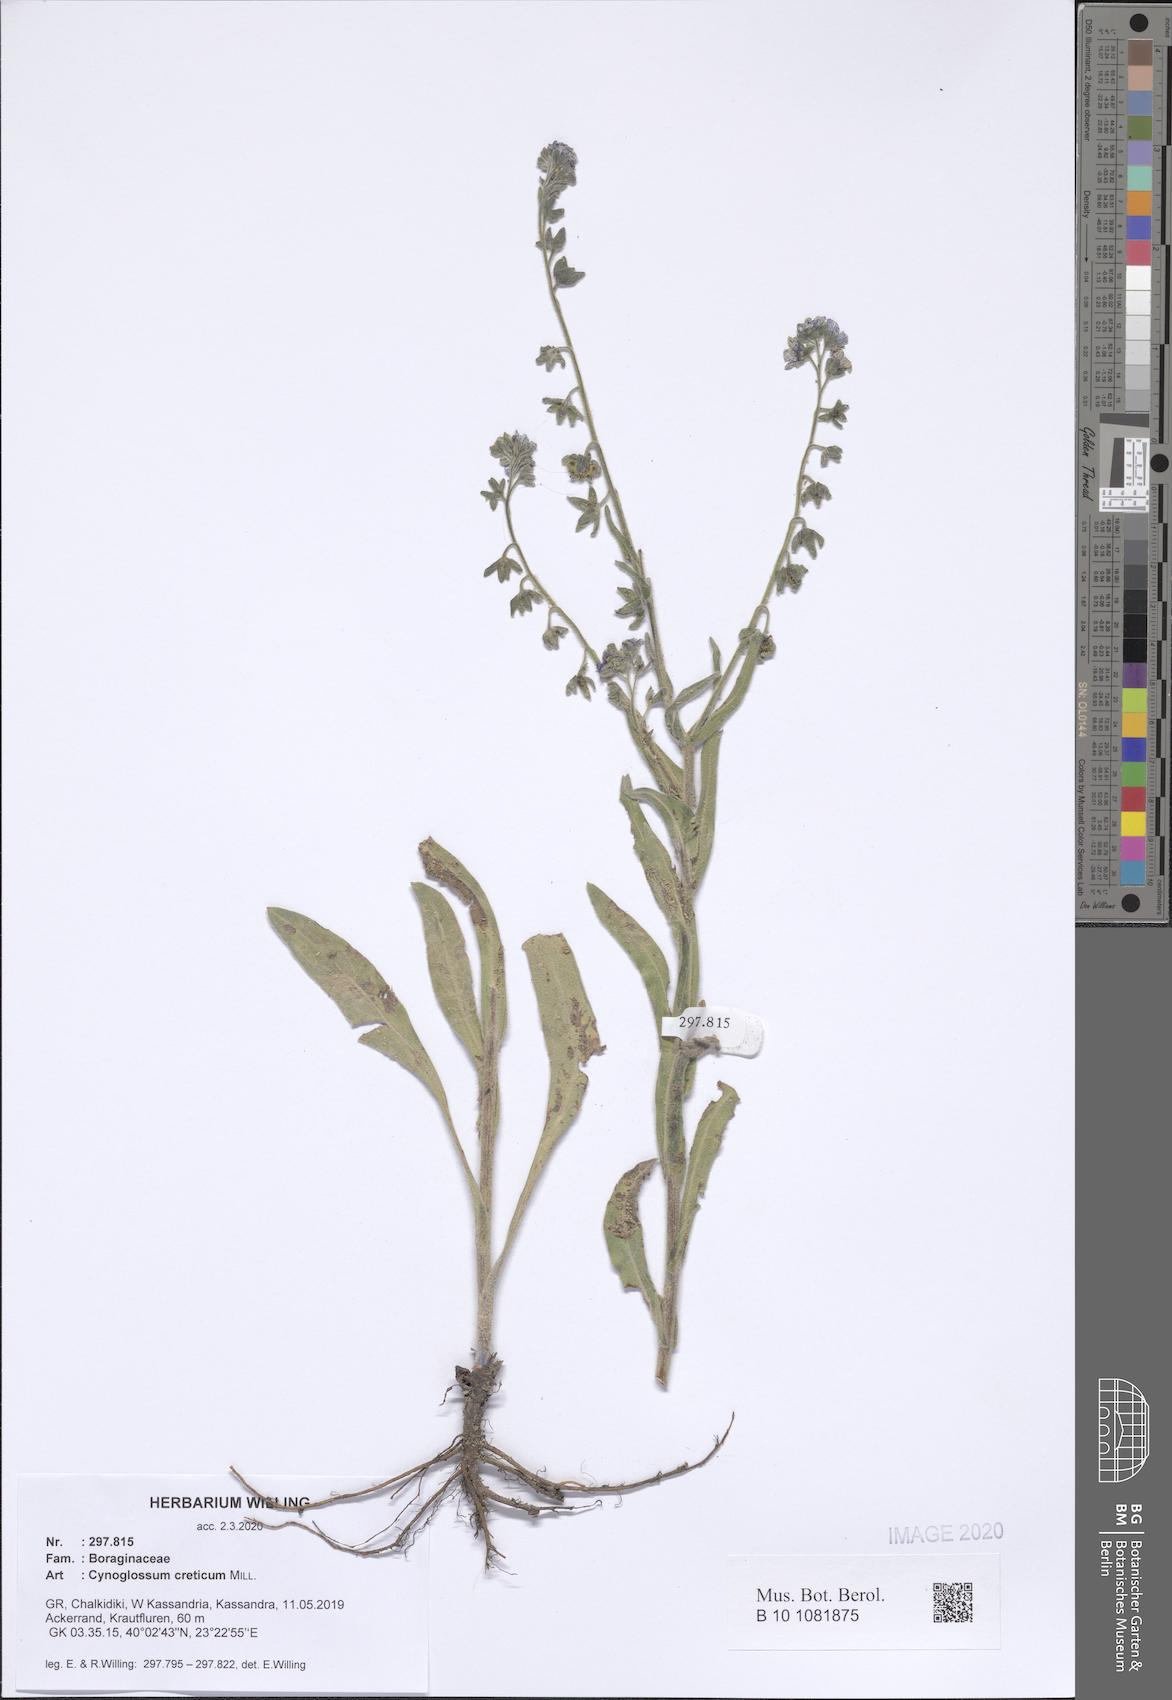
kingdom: Plantae
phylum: Tracheophyta
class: Magnoliopsida
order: Boraginales
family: Boraginaceae
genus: Cynoglossum
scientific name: Cynoglossum creticum
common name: Blue hound's tongue
